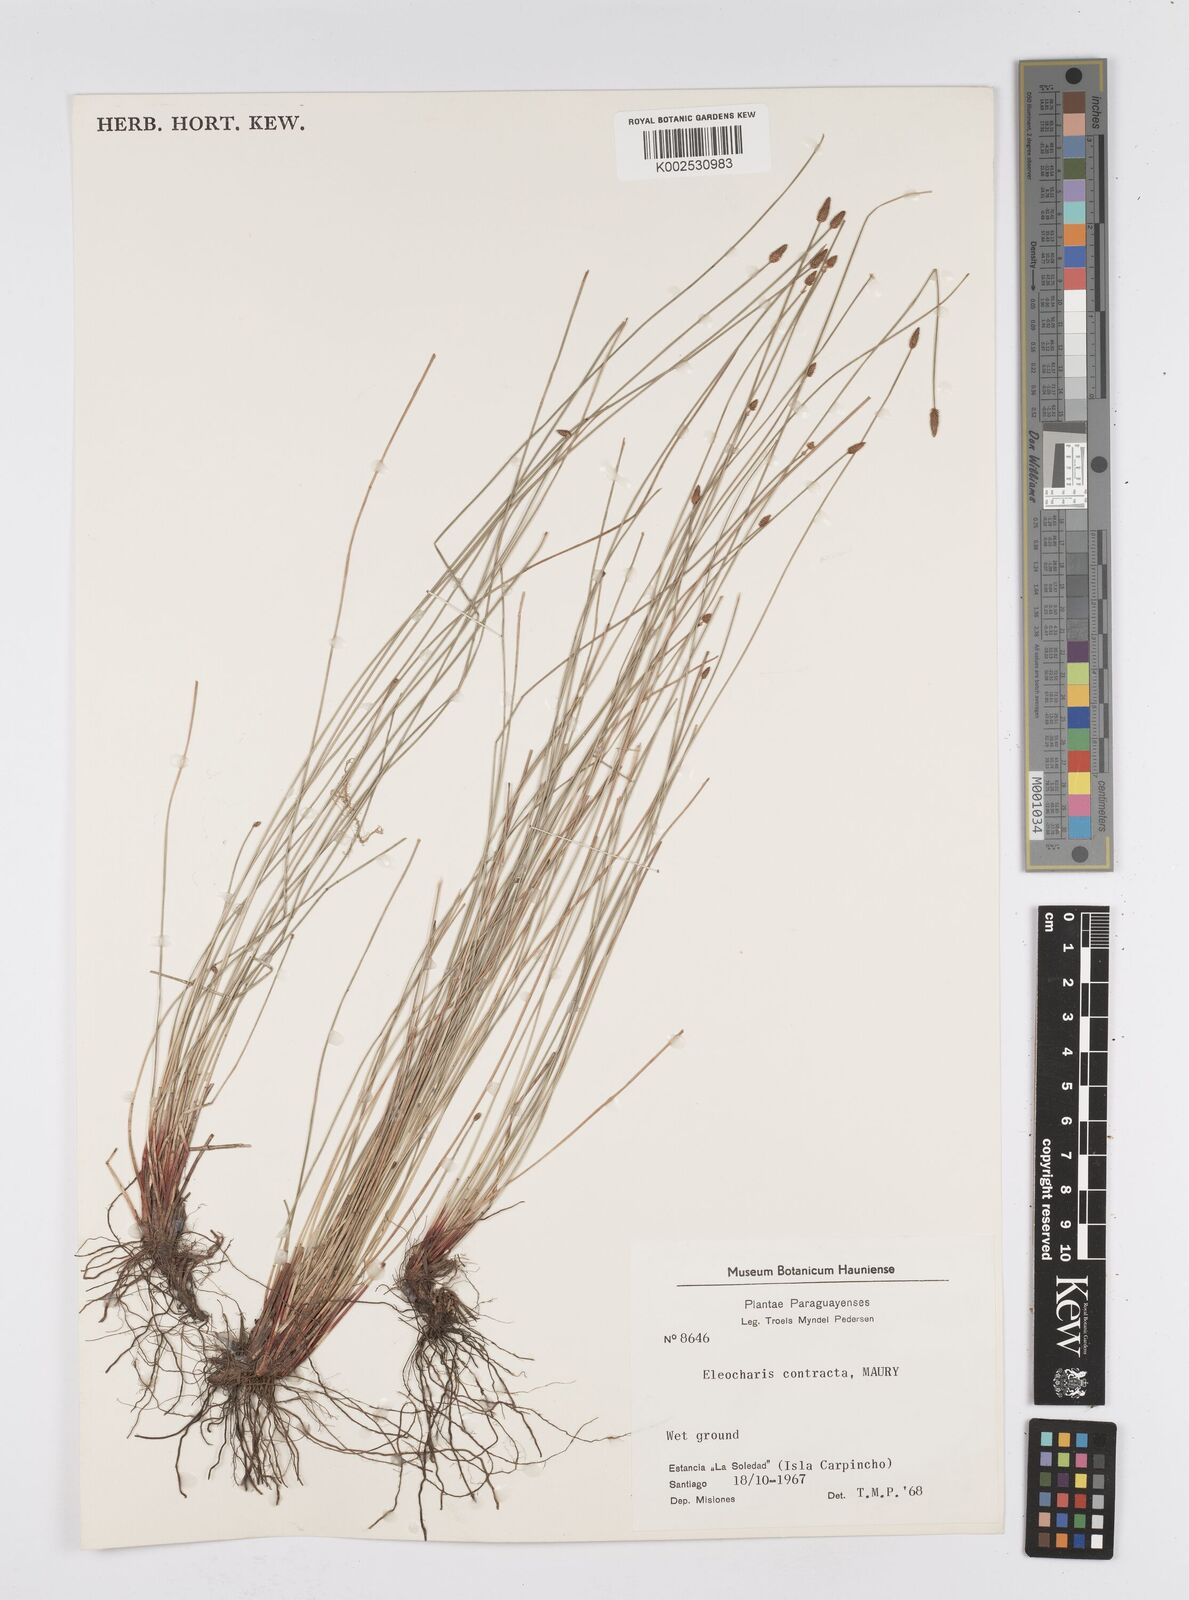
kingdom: Plantae
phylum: Tracheophyta
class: Liliopsida
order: Poales
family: Cyperaceae
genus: Eleocharis
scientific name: Eleocharis montana
